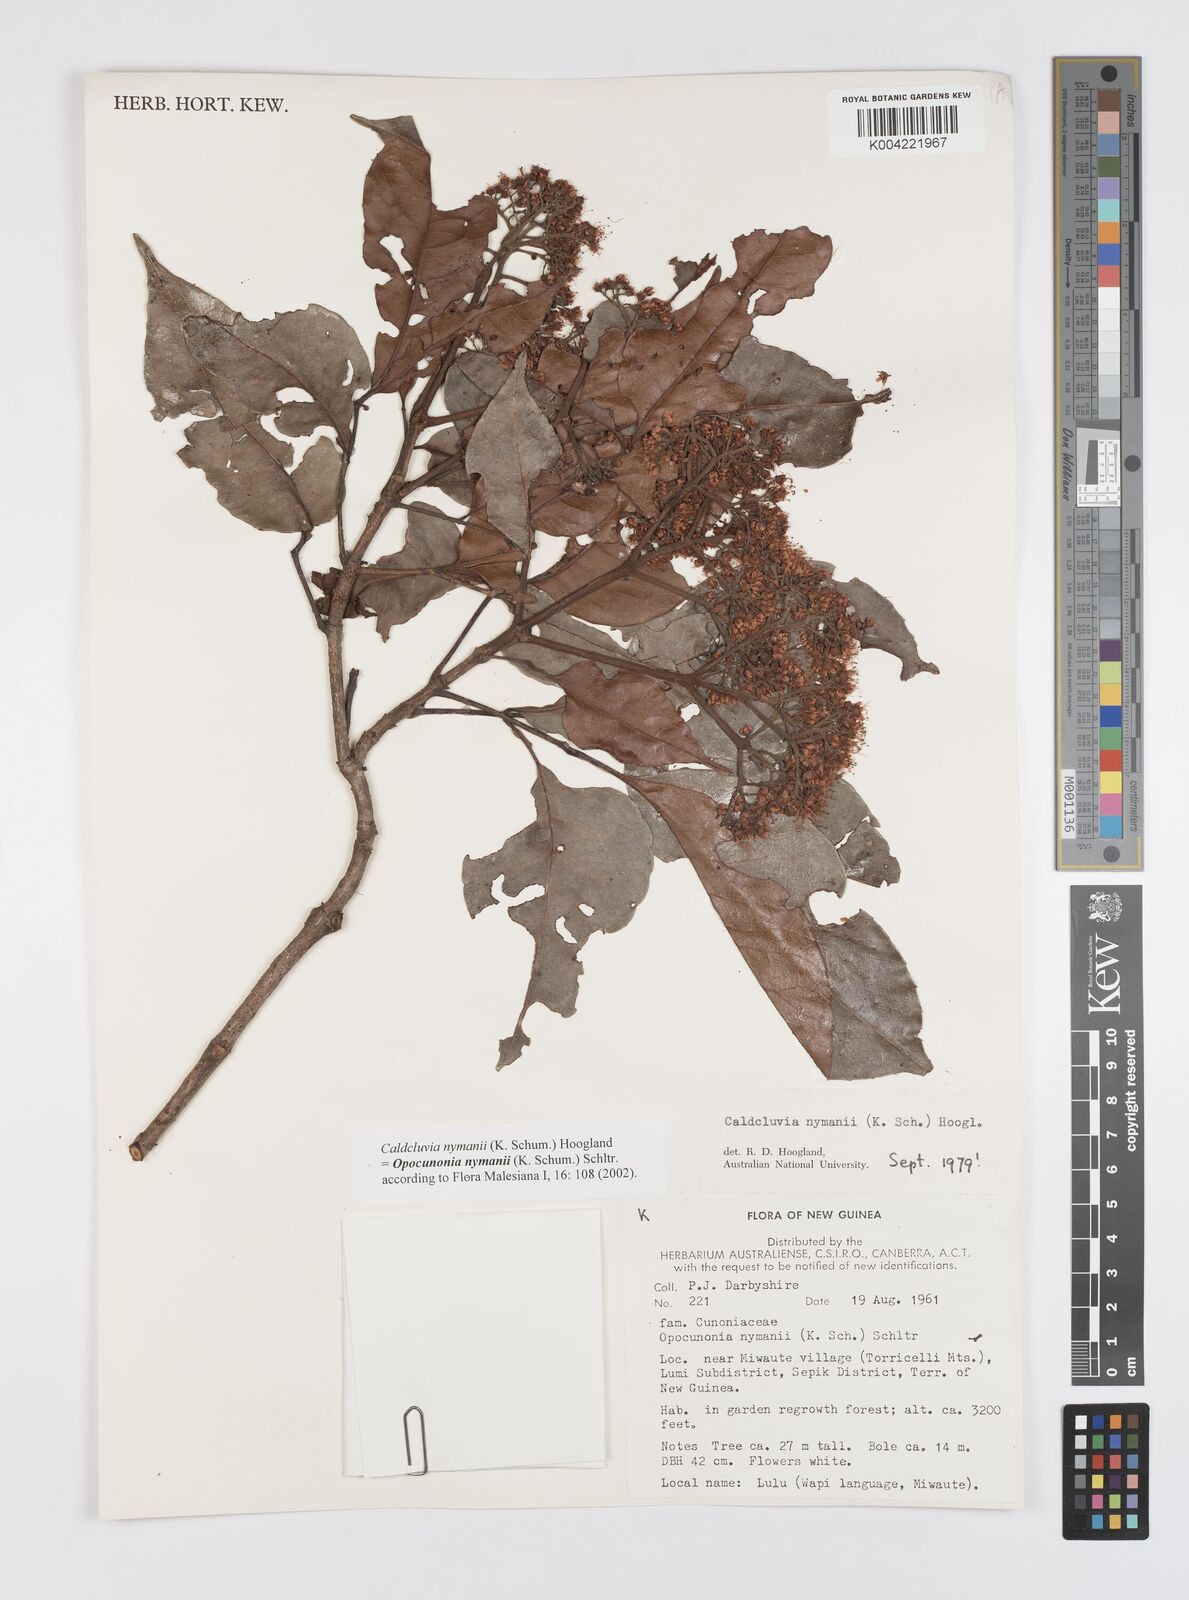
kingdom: Plantae
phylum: Tracheophyta
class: Magnoliopsida
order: Oxalidales
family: Cunoniaceae
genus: Opocunonia
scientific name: Opocunonia nymanii
